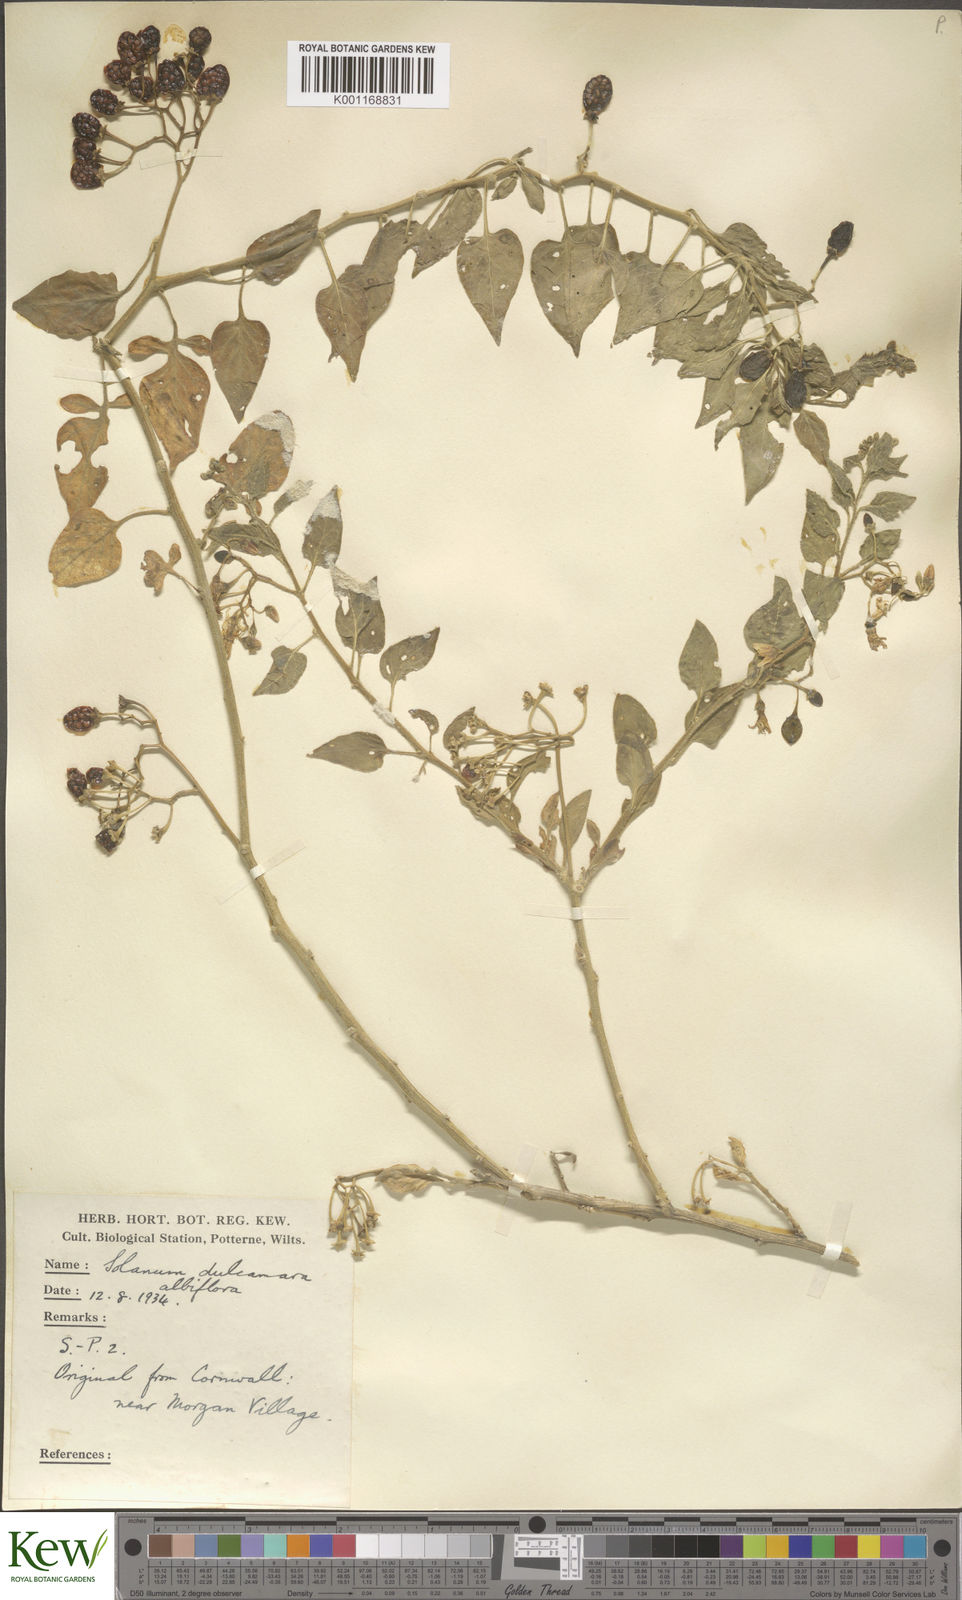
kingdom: Plantae
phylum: Tracheophyta
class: Magnoliopsida
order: Solanales
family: Solanaceae
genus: Solanum
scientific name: Solanum dulcamara
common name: Climbing nightshade
